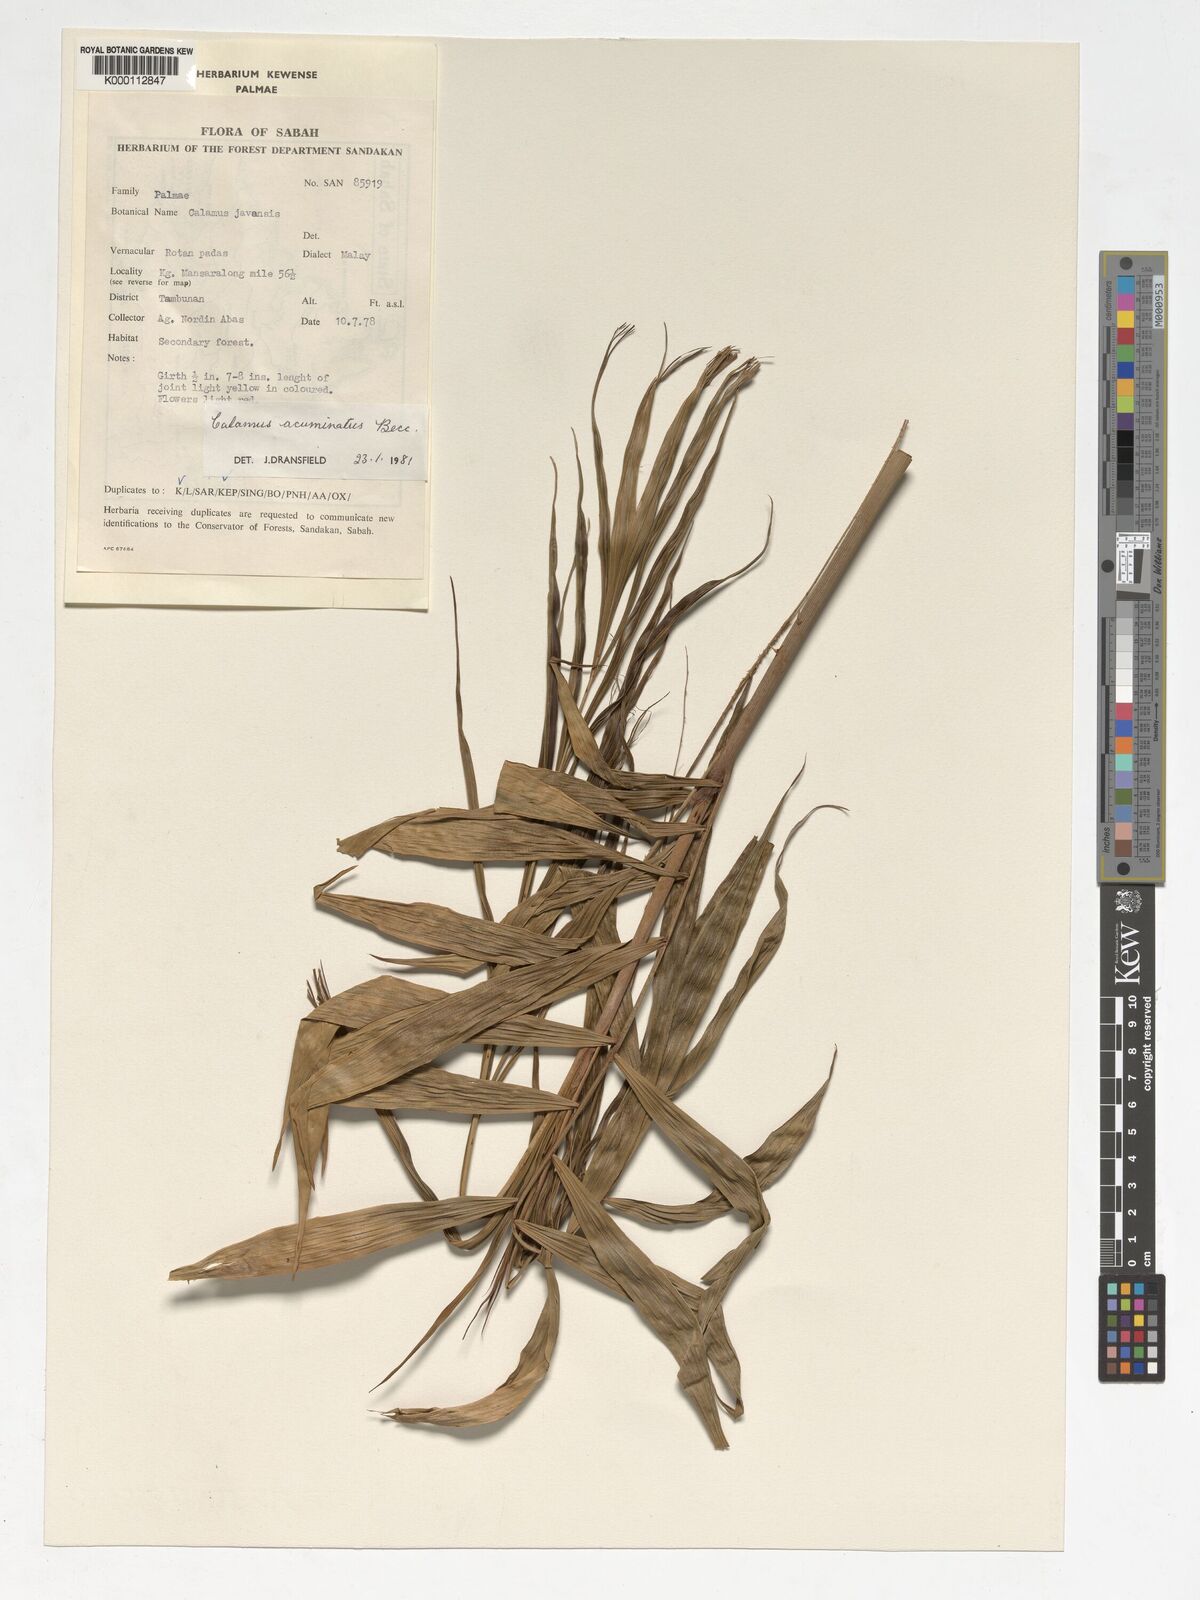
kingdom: Plantae
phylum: Tracheophyta
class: Liliopsida
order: Arecales
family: Arecaceae
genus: Calamus
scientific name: Calamus javensis
